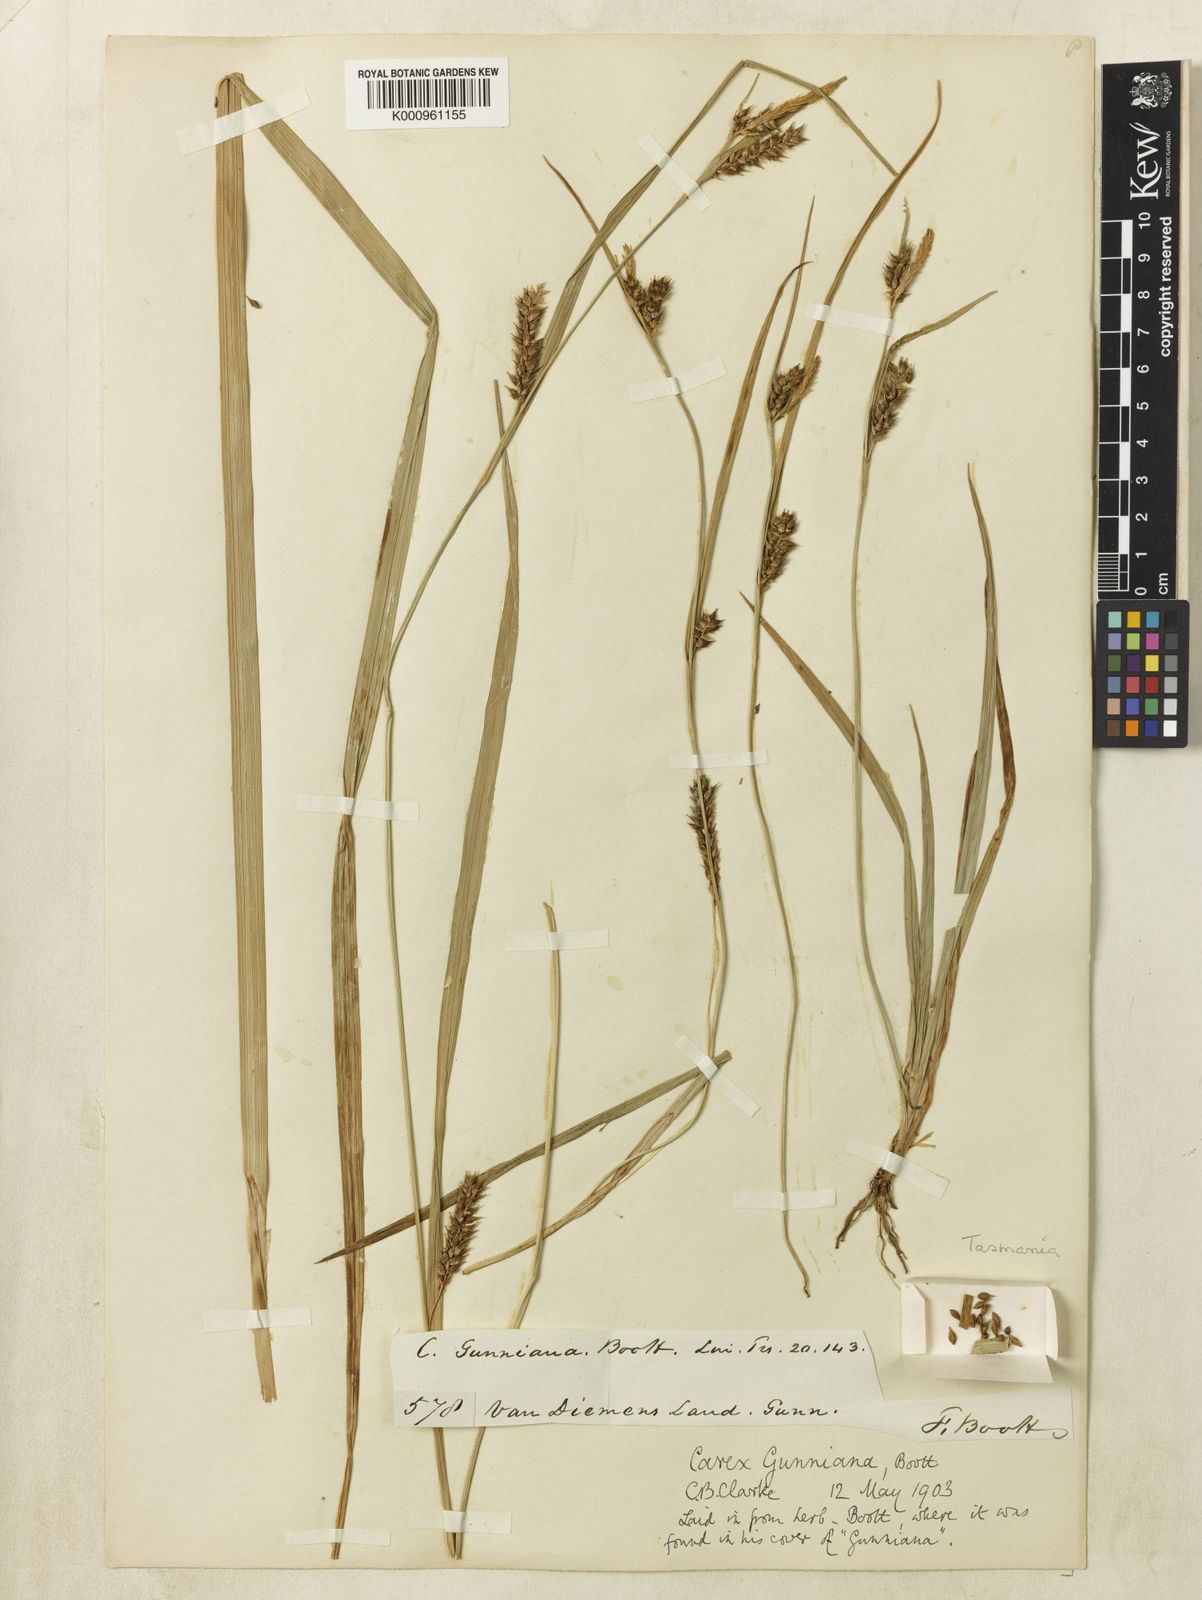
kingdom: Plantae
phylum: Tracheophyta
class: Liliopsida
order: Poales
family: Cyperaceae
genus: Carex
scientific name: Carex gunniana
